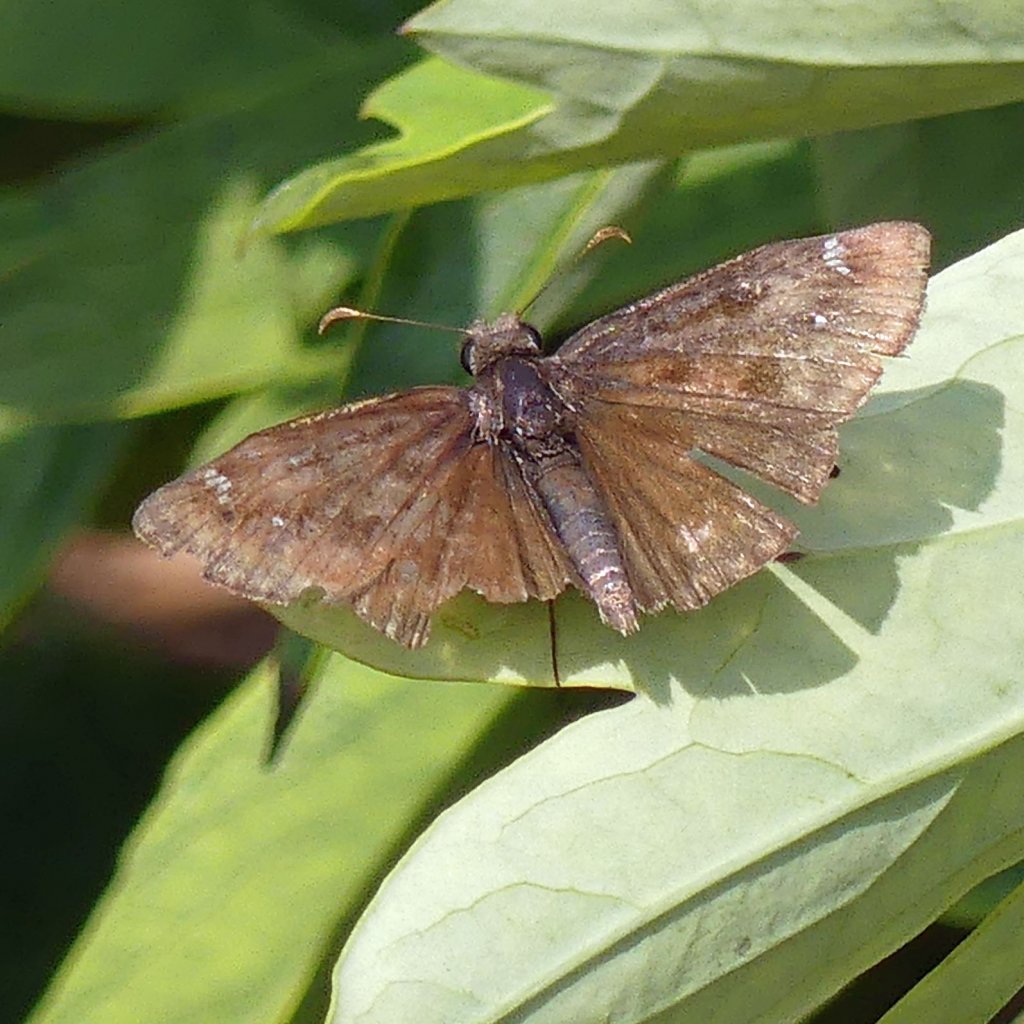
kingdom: Animalia
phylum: Arthropoda
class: Insecta
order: Lepidoptera
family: Hesperiidae
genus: Gesta
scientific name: Gesta
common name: Wild Indigo Duskywing
